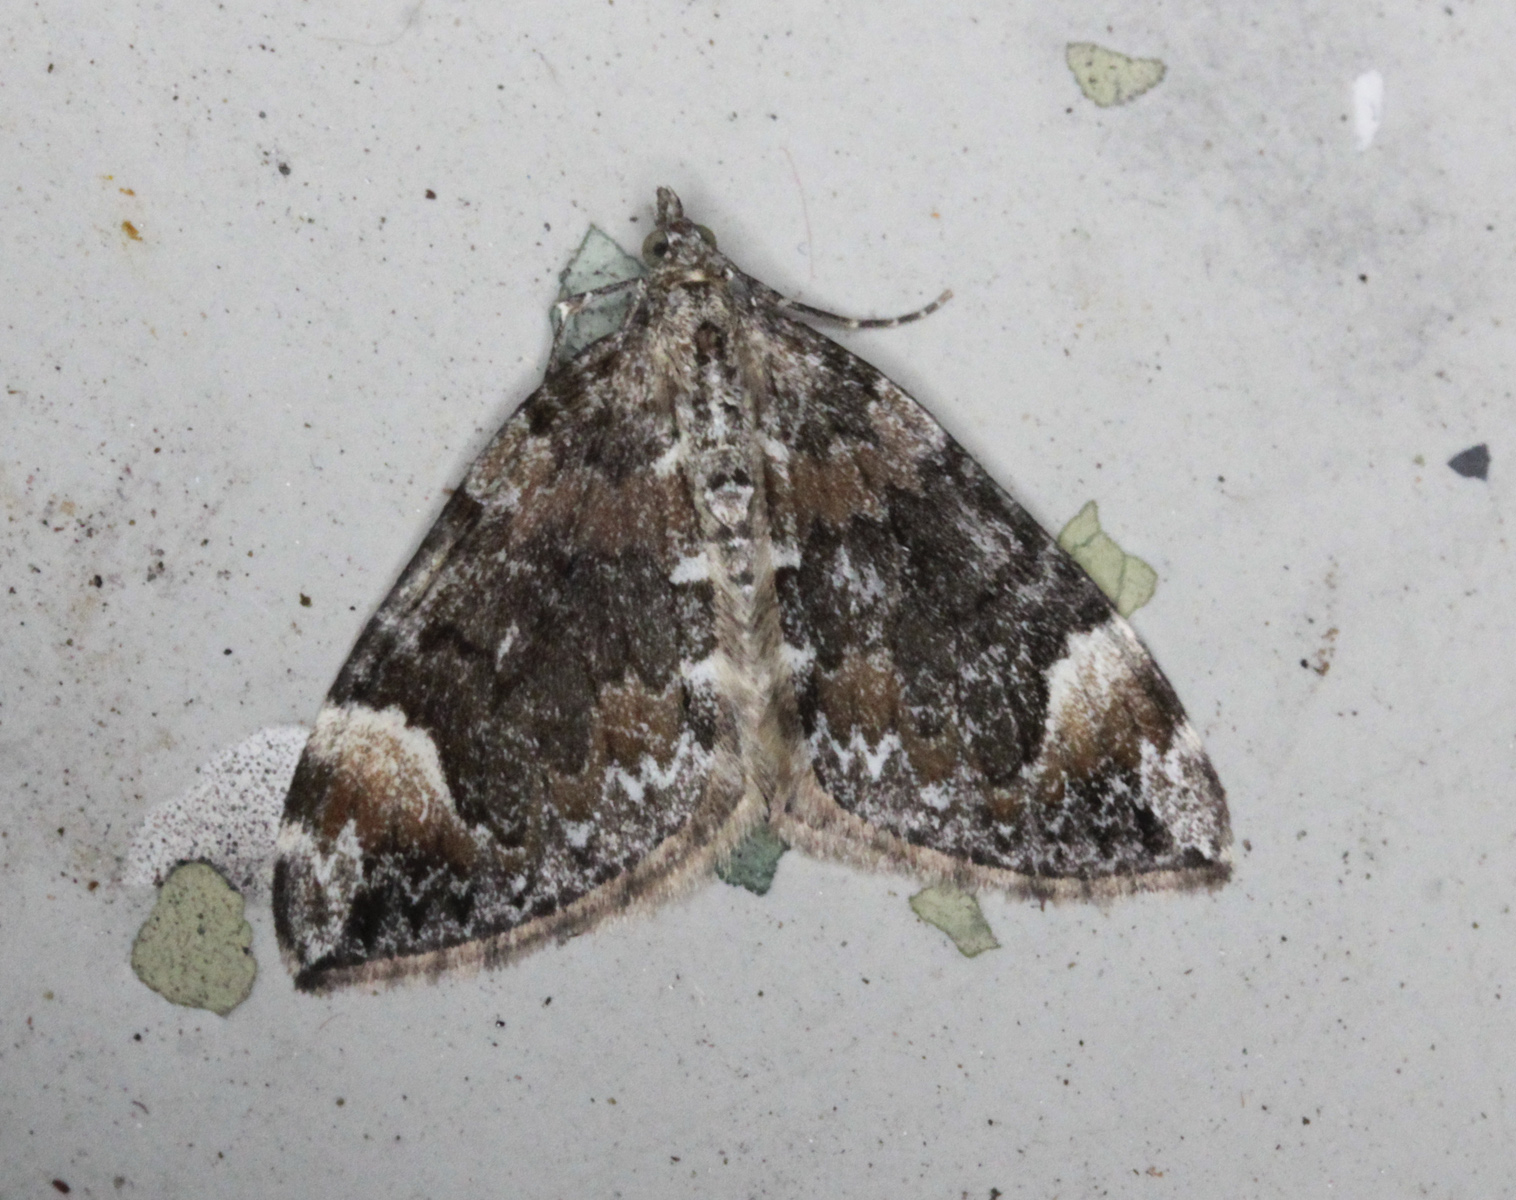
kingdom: Animalia
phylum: Arthropoda
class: Insecta
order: Lepidoptera
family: Geometridae
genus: Dysstroma
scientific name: Dysstroma citrata
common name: Dark marbled carpet
